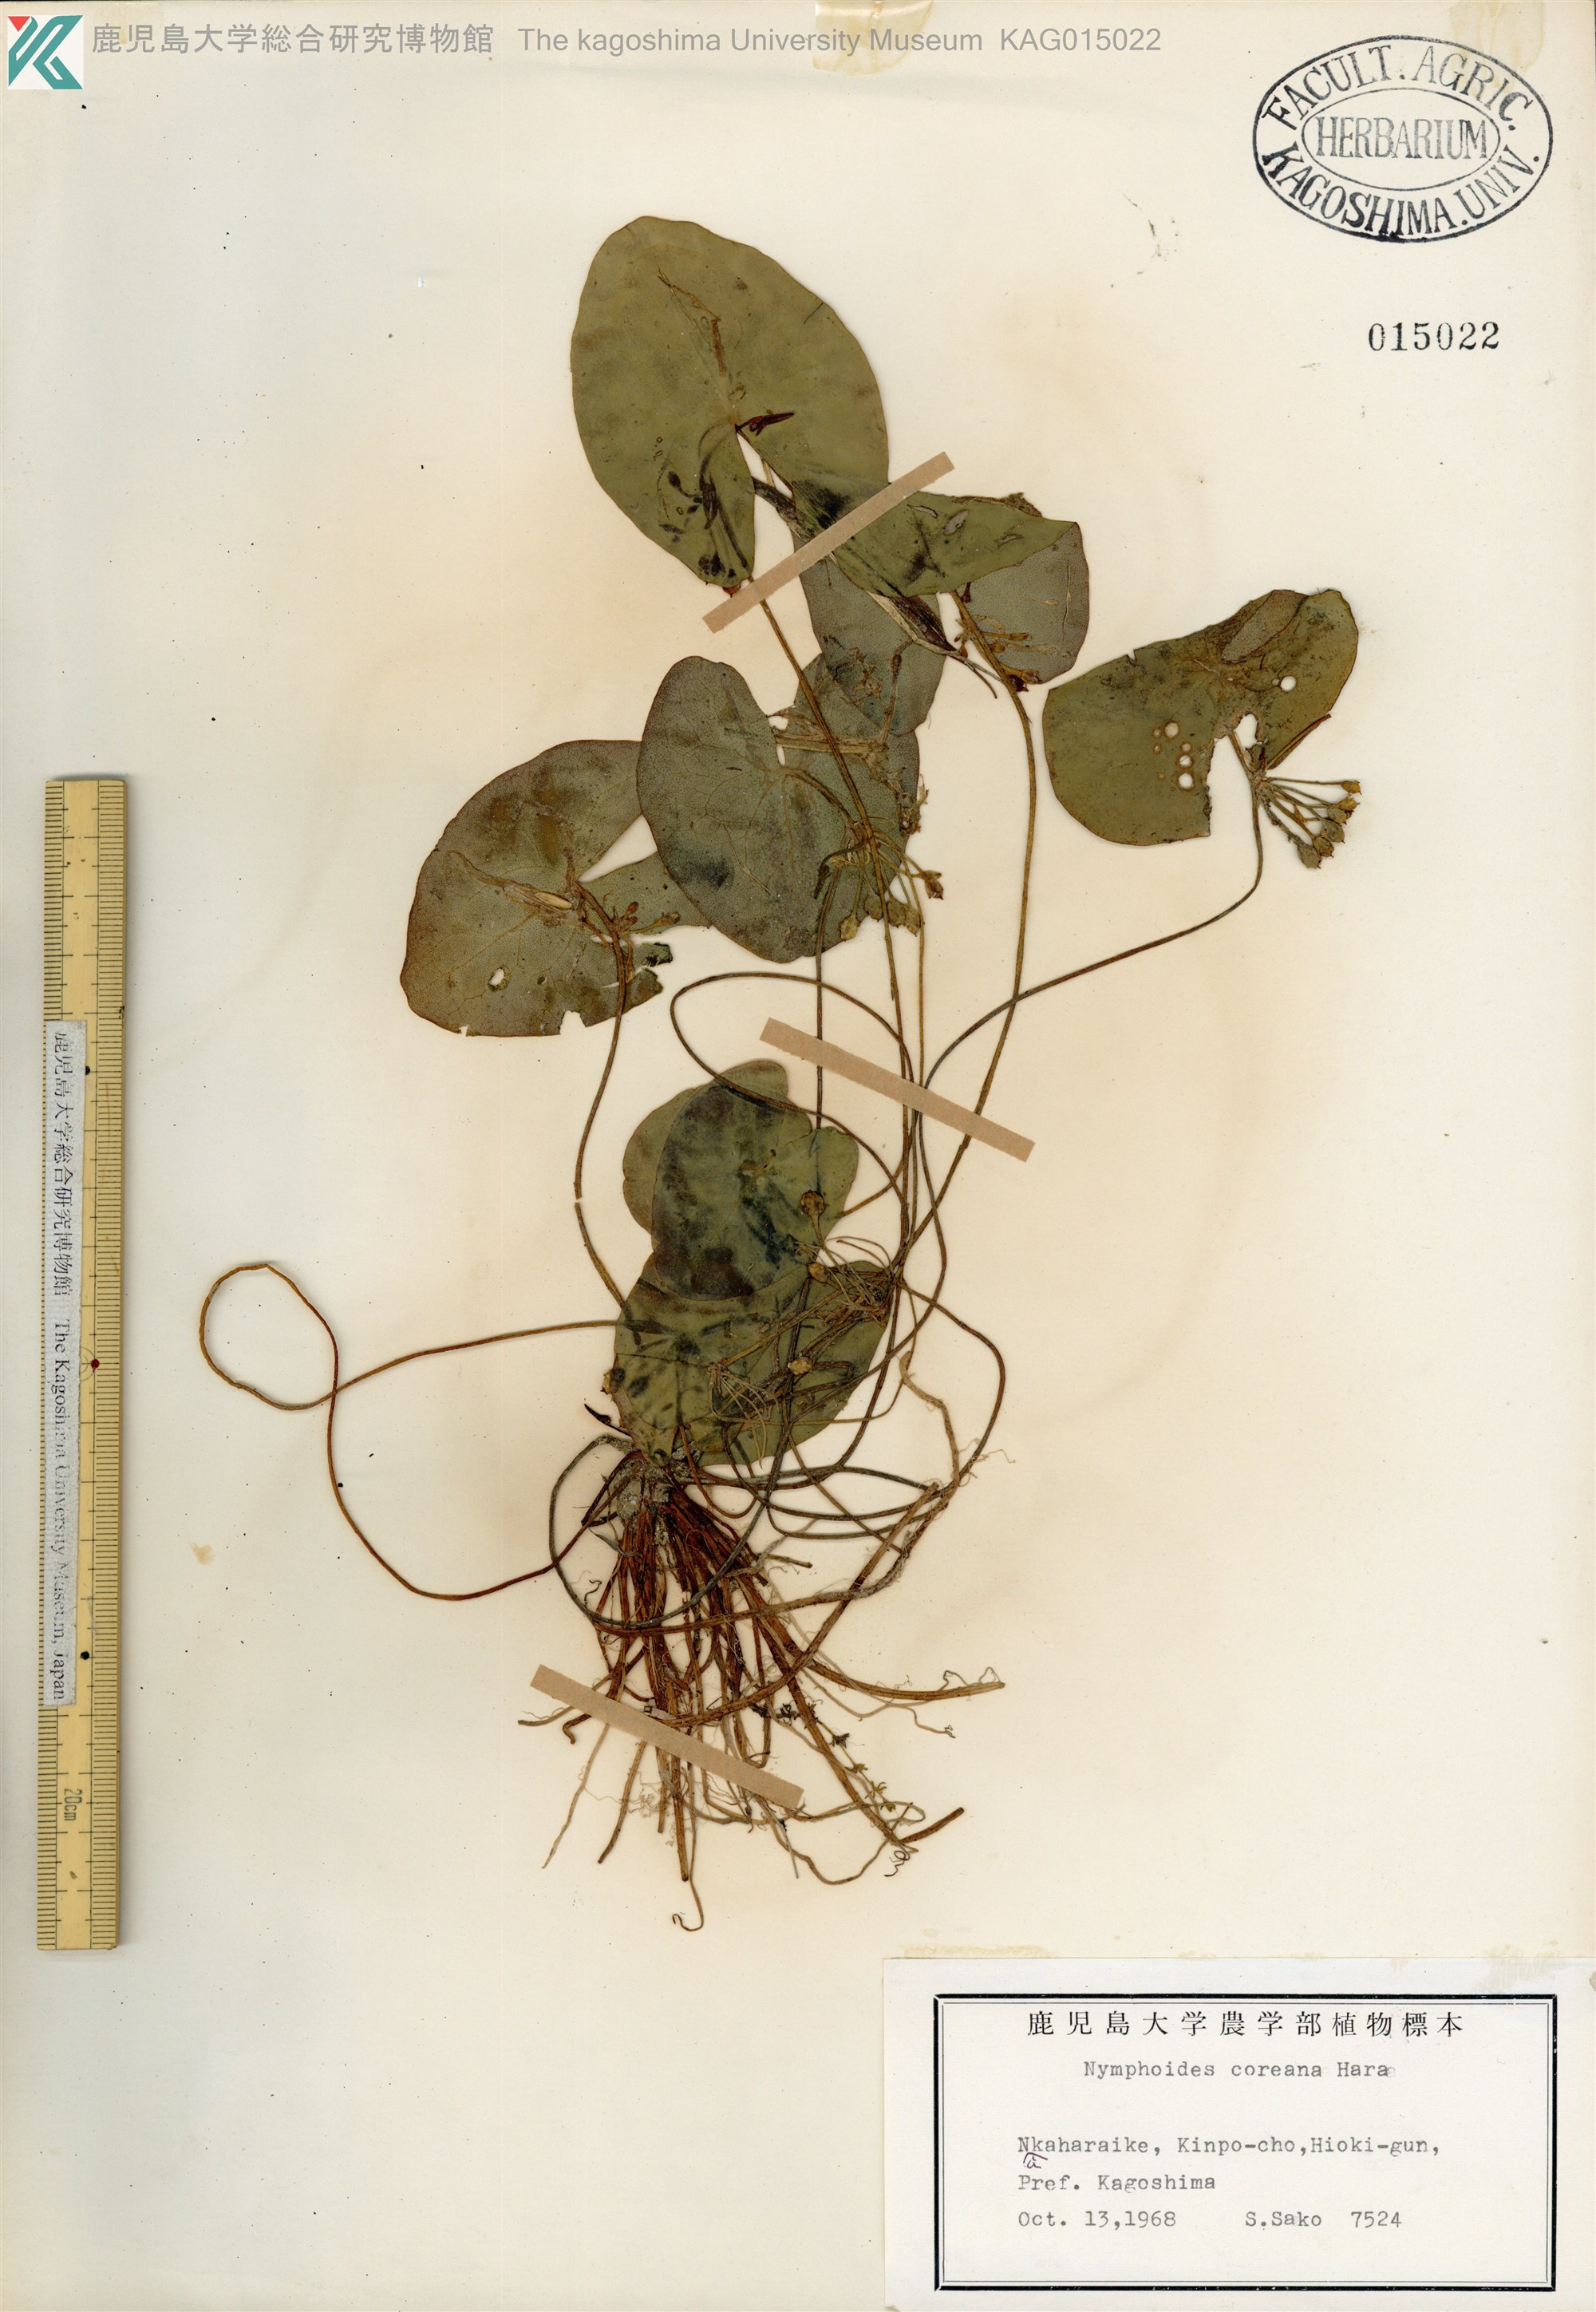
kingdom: Plantae
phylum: Tracheophyta
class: Magnoliopsida
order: Asterales
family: Menyanthaceae
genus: Nymphoides
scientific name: Nymphoides coreana
